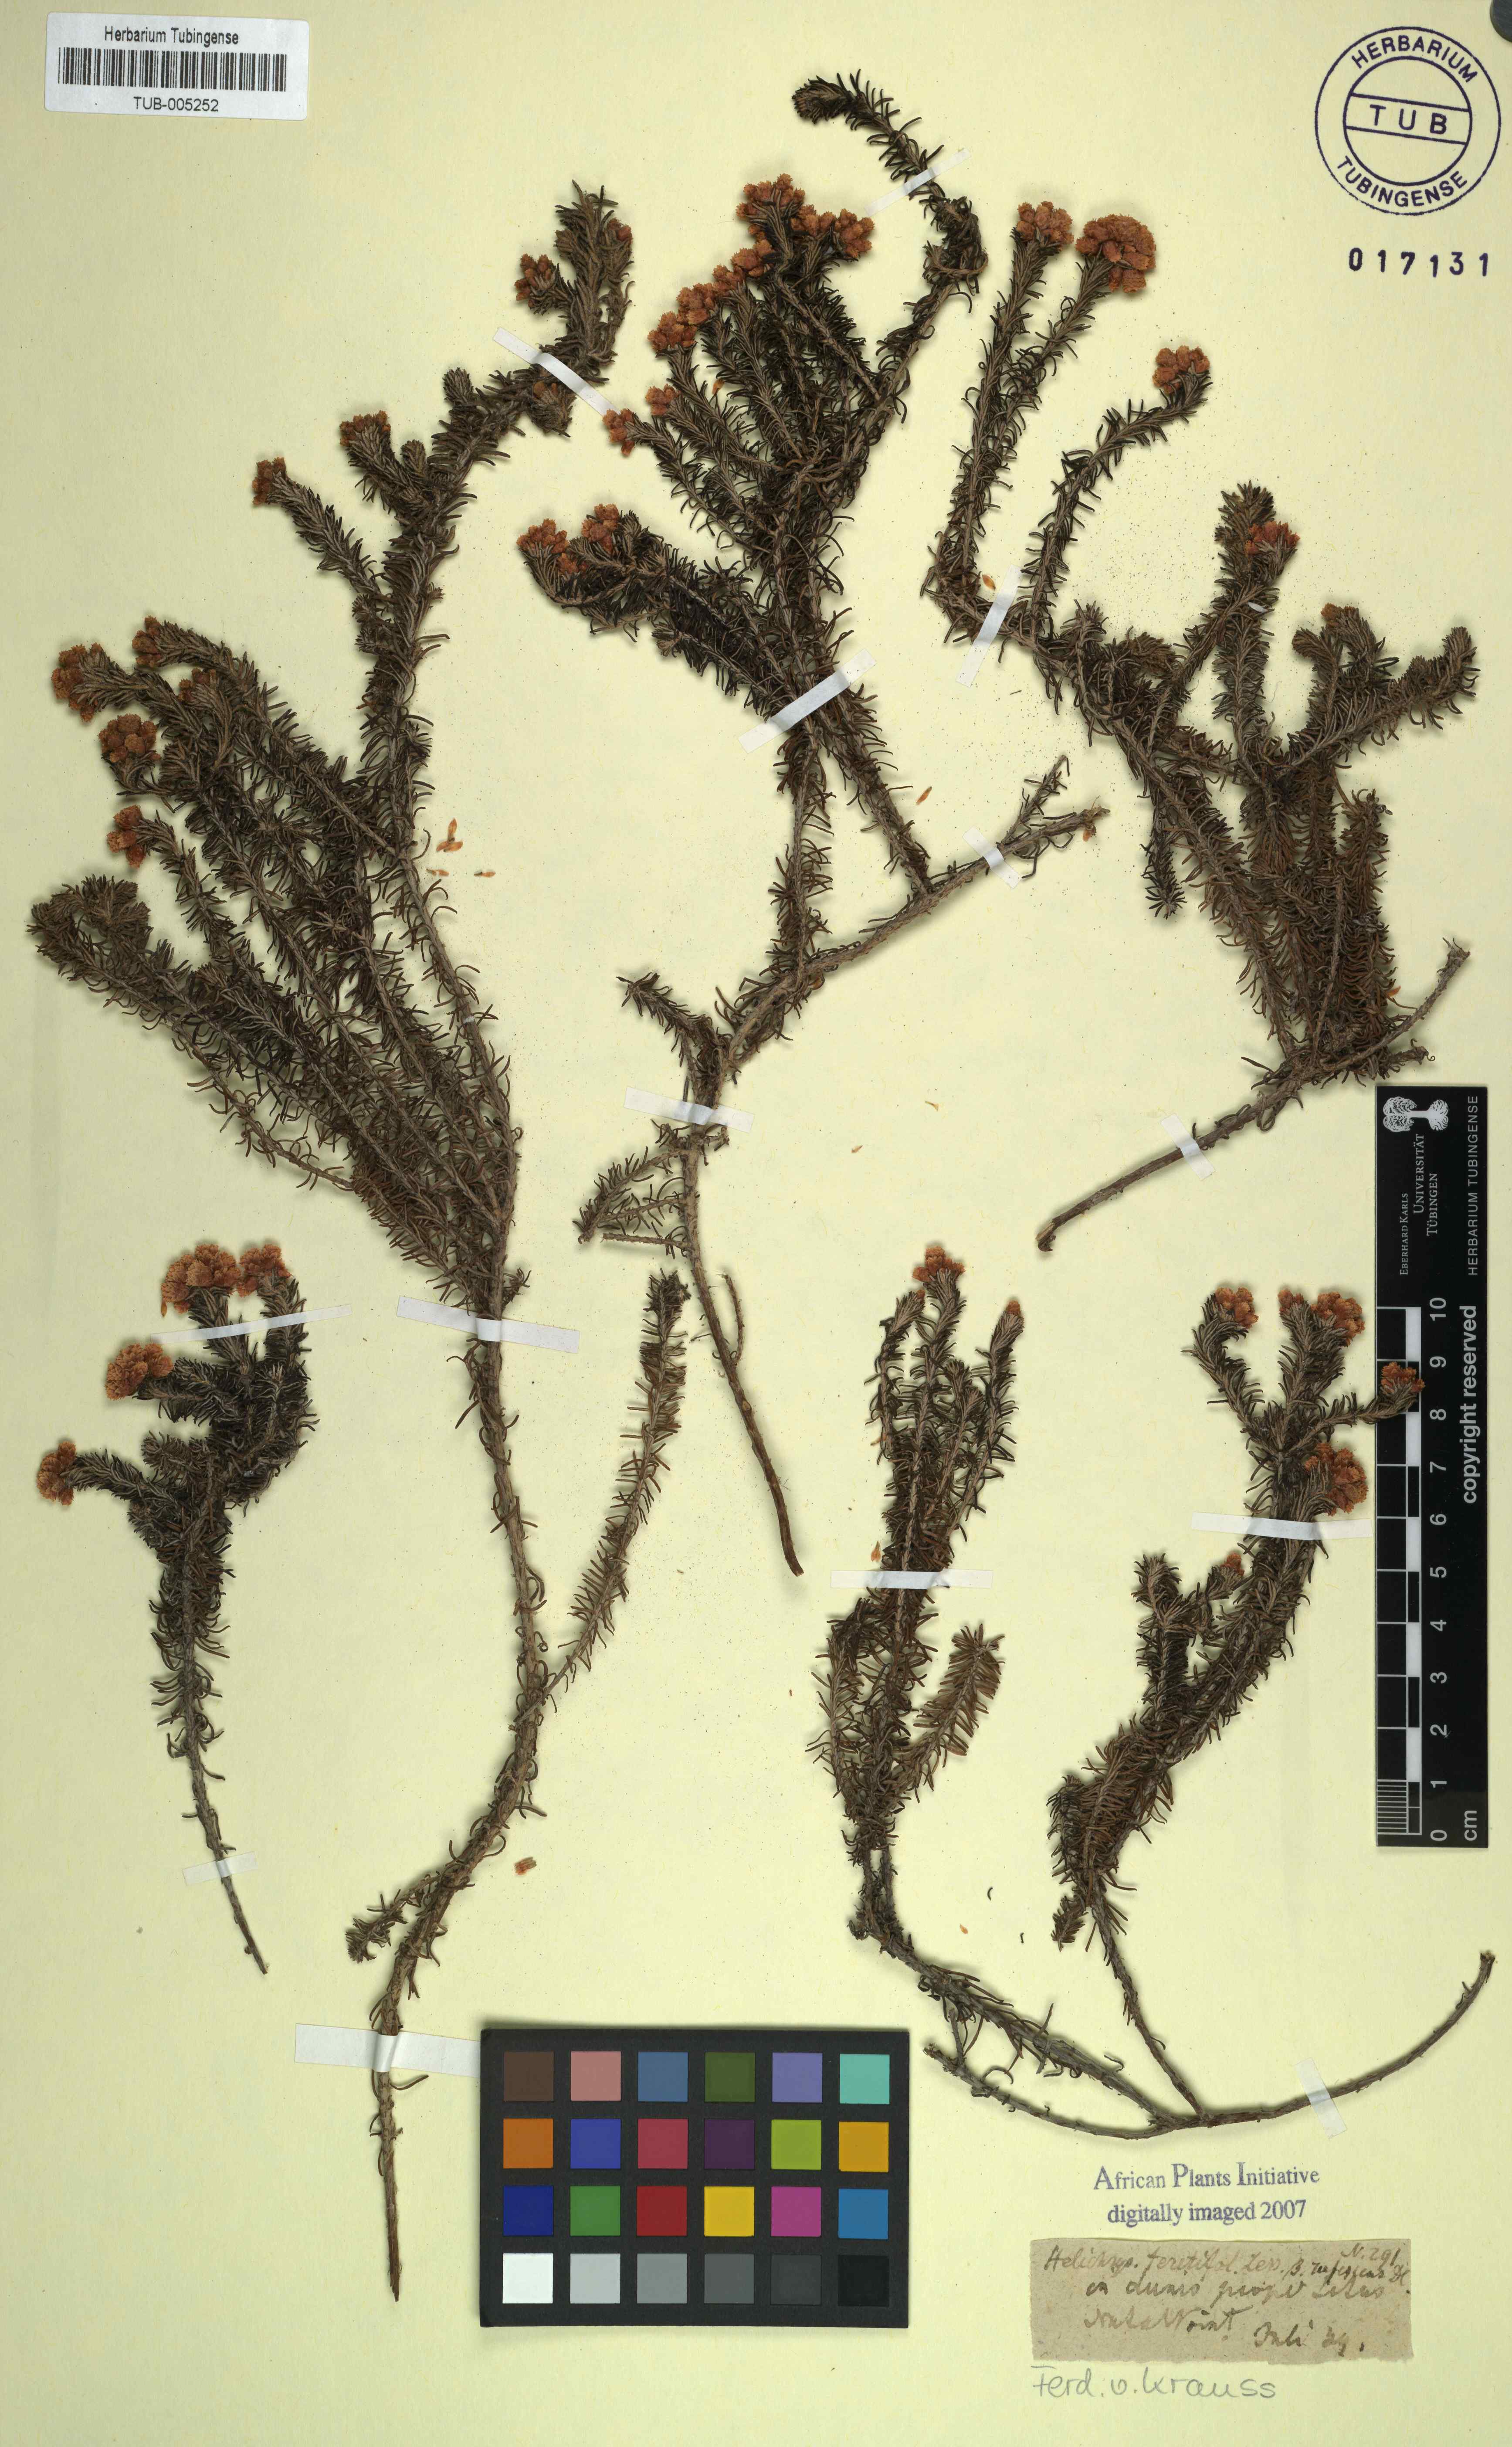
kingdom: Plantae
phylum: Tracheophyta
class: Magnoliopsida
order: Asterales
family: Asteraceae
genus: Helichrysum
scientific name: Helichrysum
